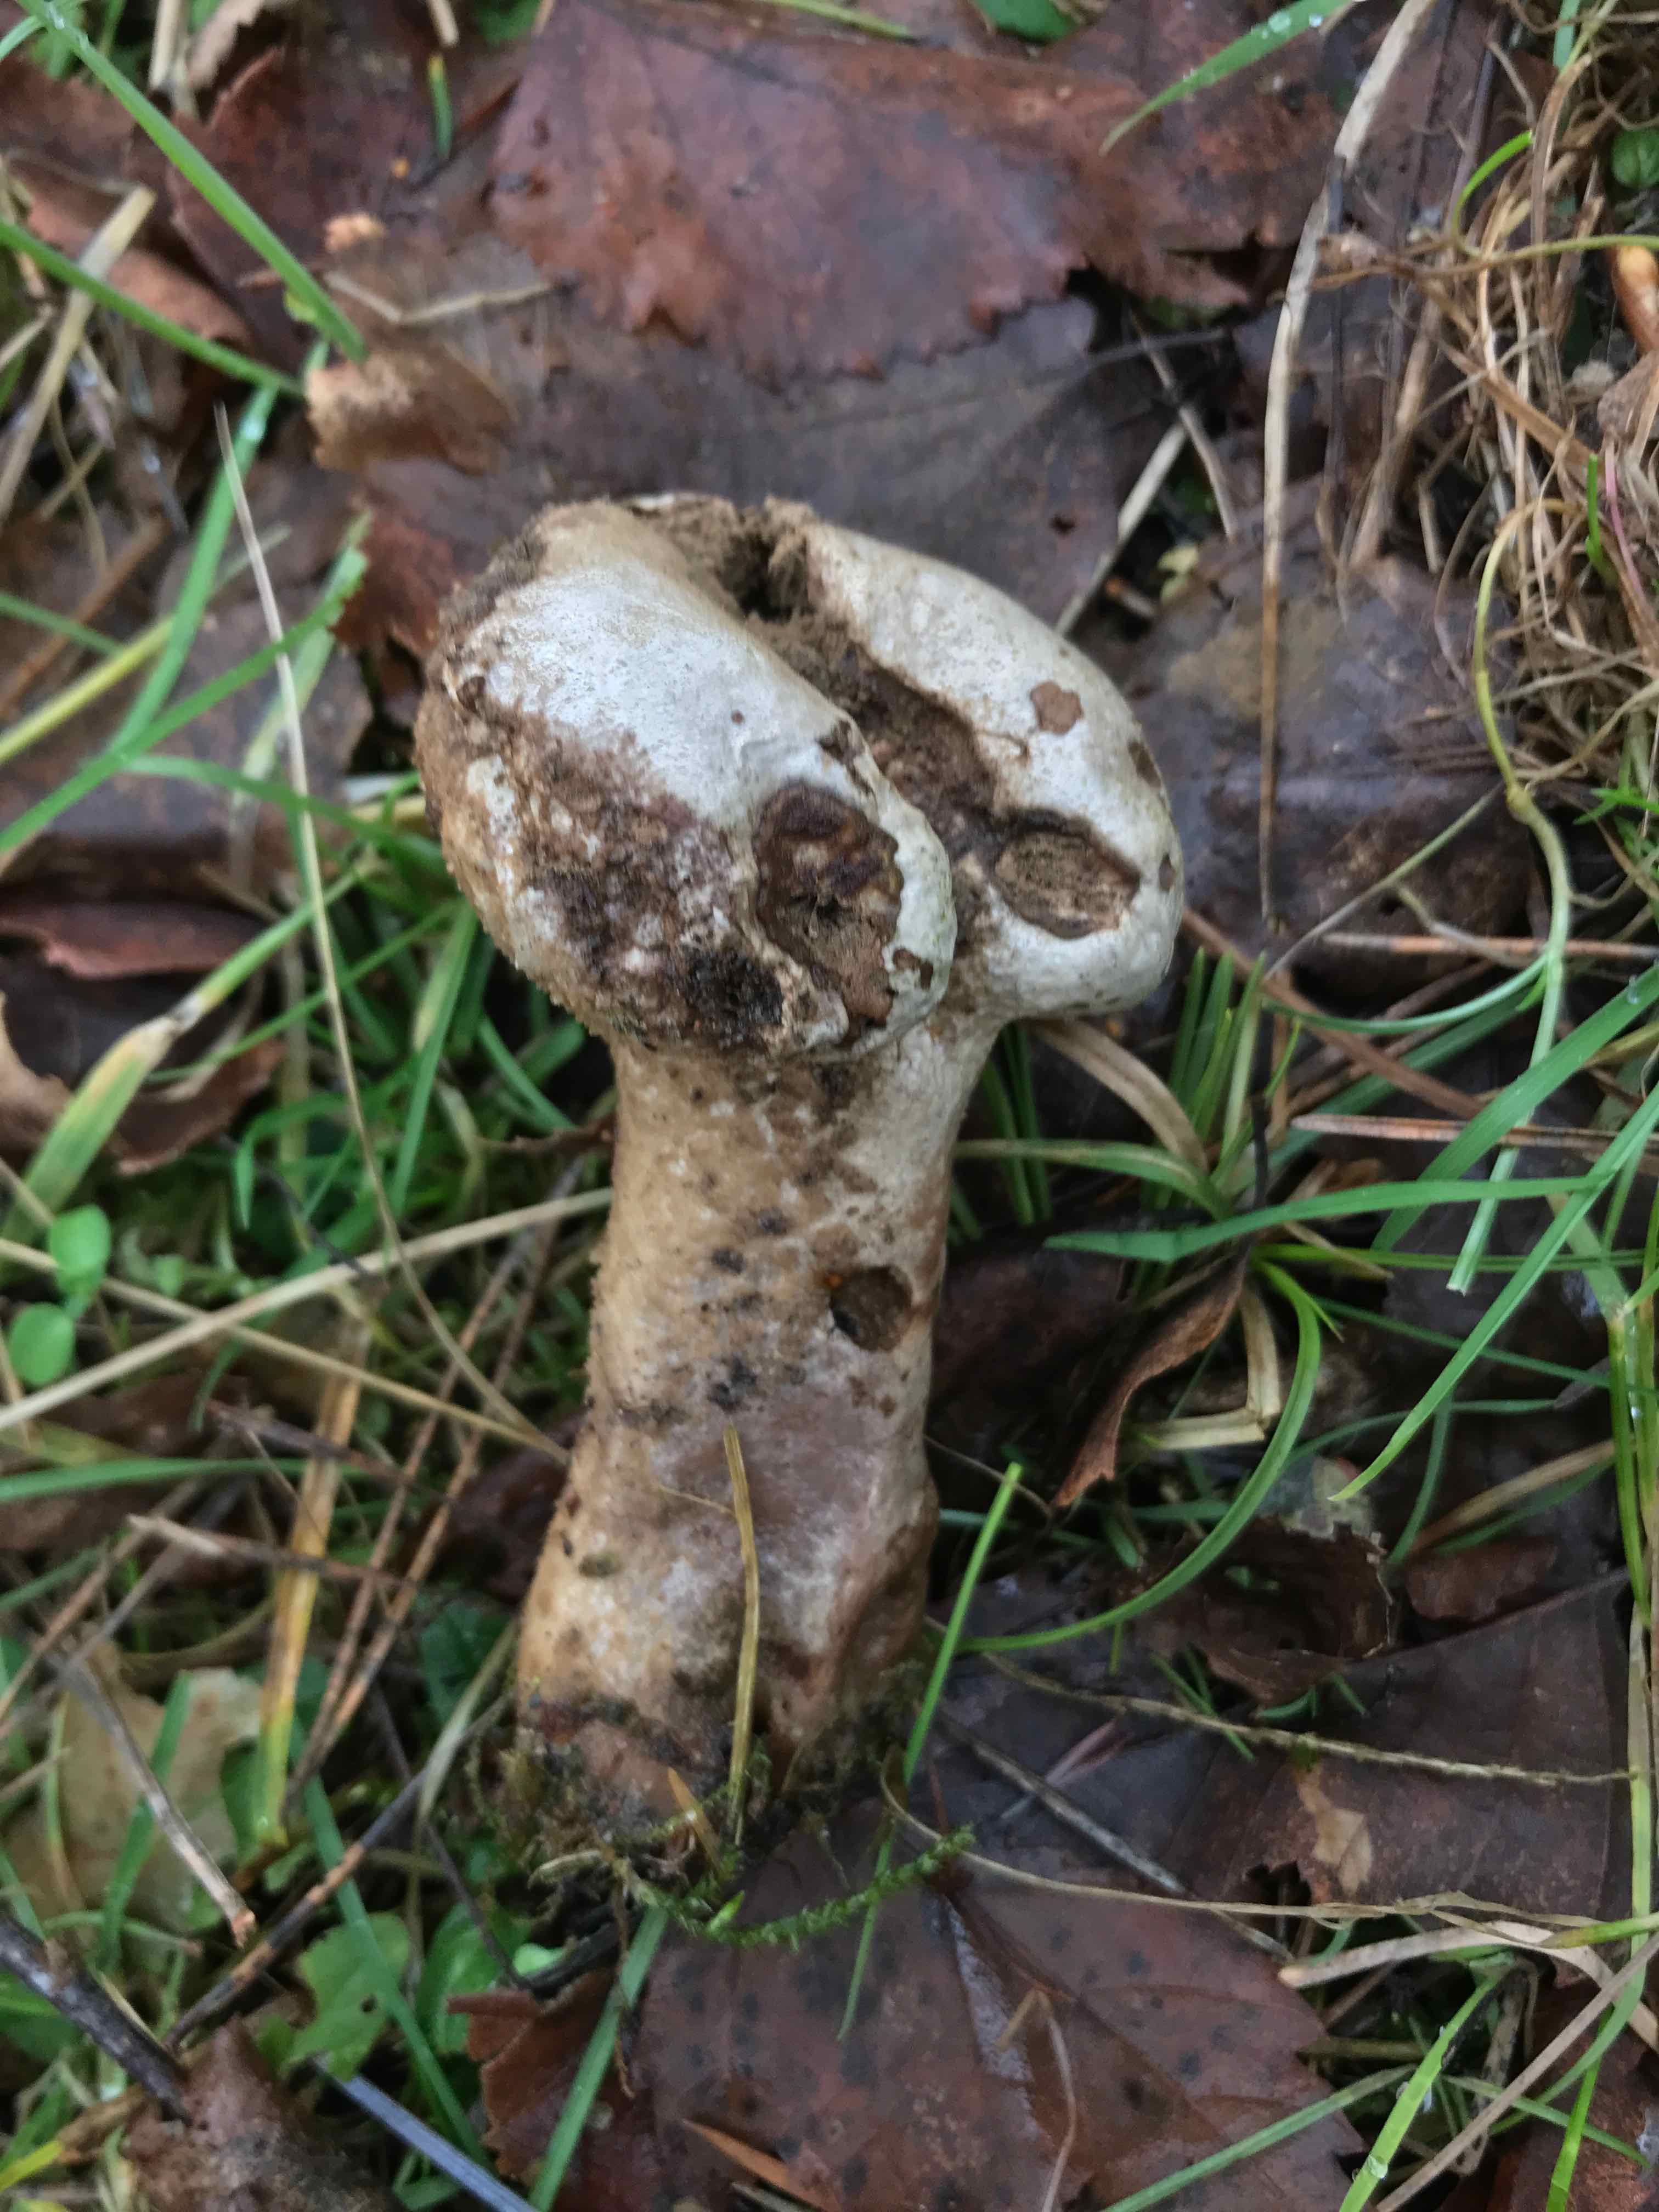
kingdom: Fungi
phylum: Basidiomycota
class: Agaricomycetes
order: Agaricales
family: Lycoperdaceae
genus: Lycoperdon
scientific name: Lycoperdon excipuliforme
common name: højstokket støvbold
